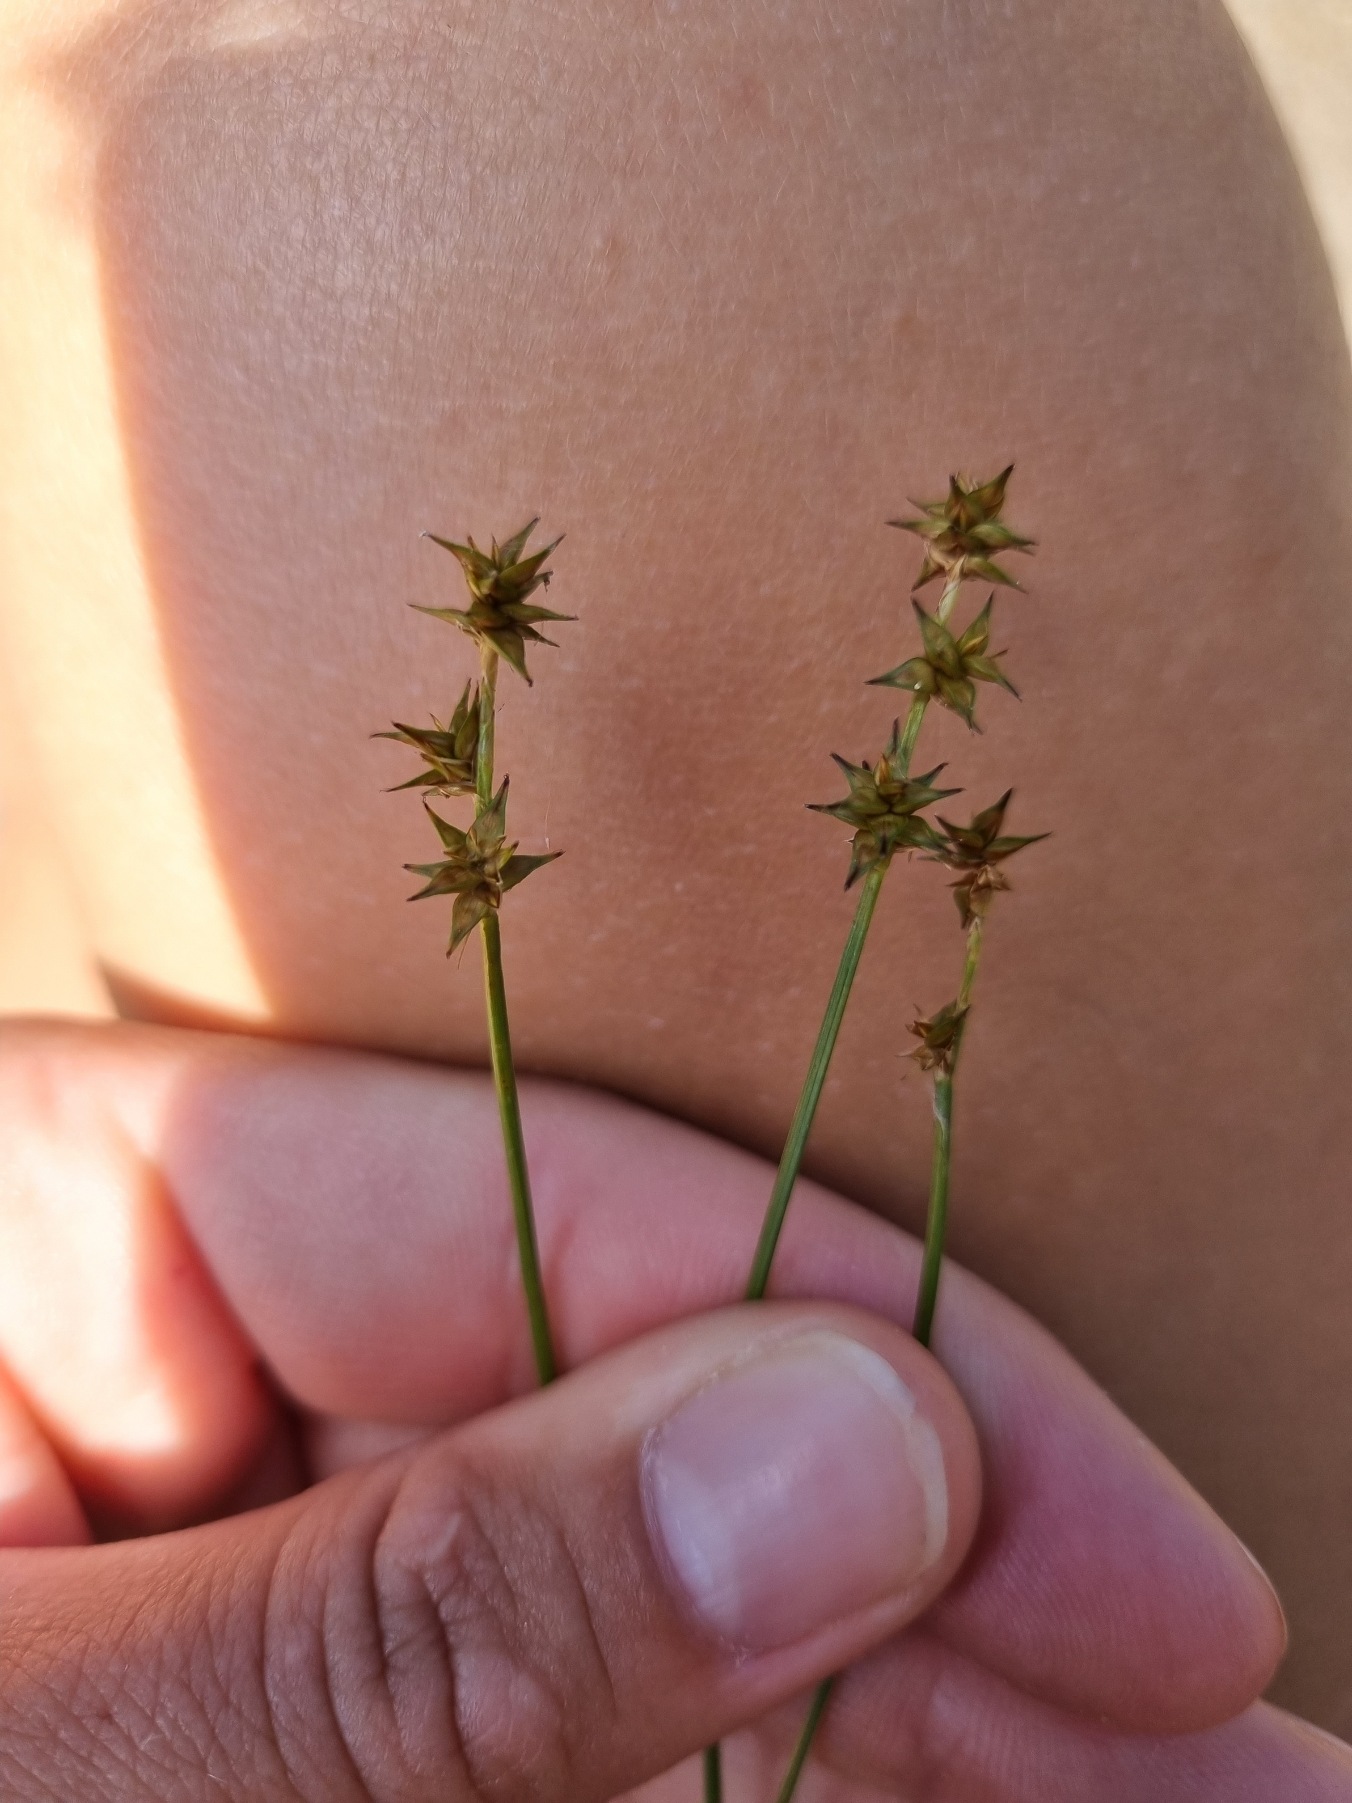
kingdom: Plantae
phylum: Tracheophyta
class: Liliopsida
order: Poales
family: Cyperaceae
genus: Carex
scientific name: Carex echinata
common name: Stjerne-star
